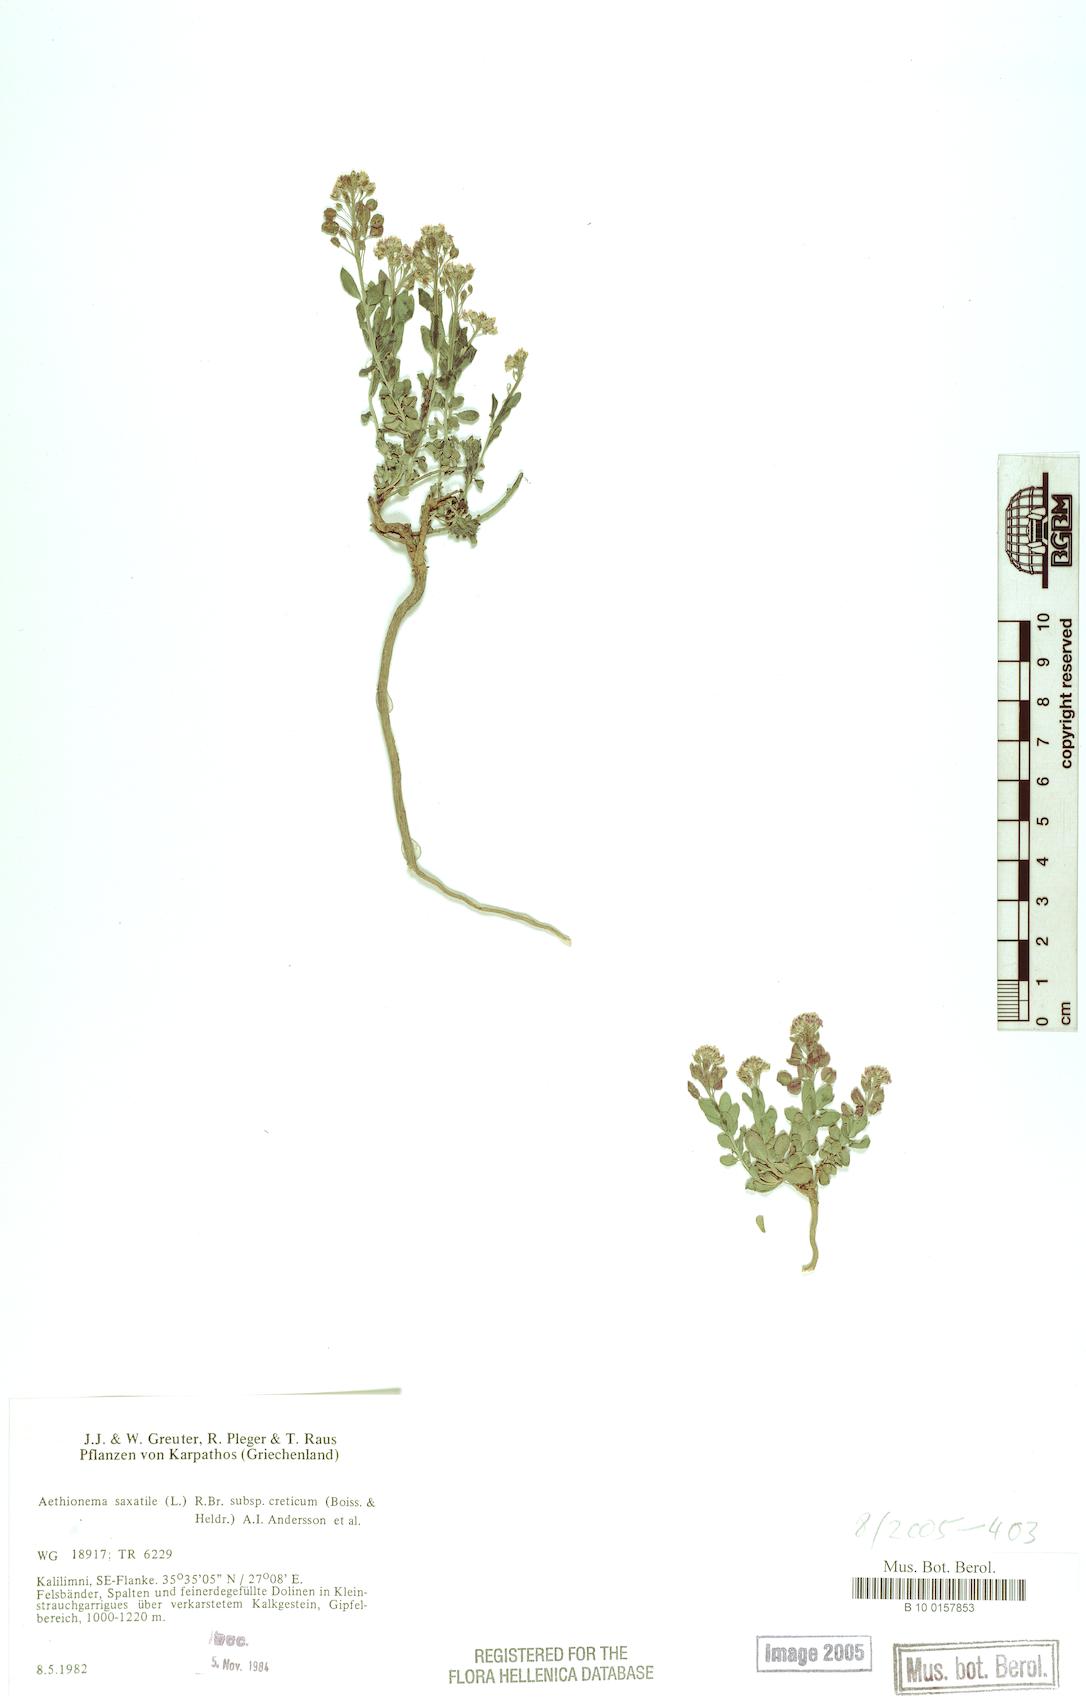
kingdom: Plantae
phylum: Tracheophyta
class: Magnoliopsida
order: Brassicales
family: Brassicaceae
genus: Aethionema
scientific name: Aethionema saxatile
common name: Burnt candytuft
